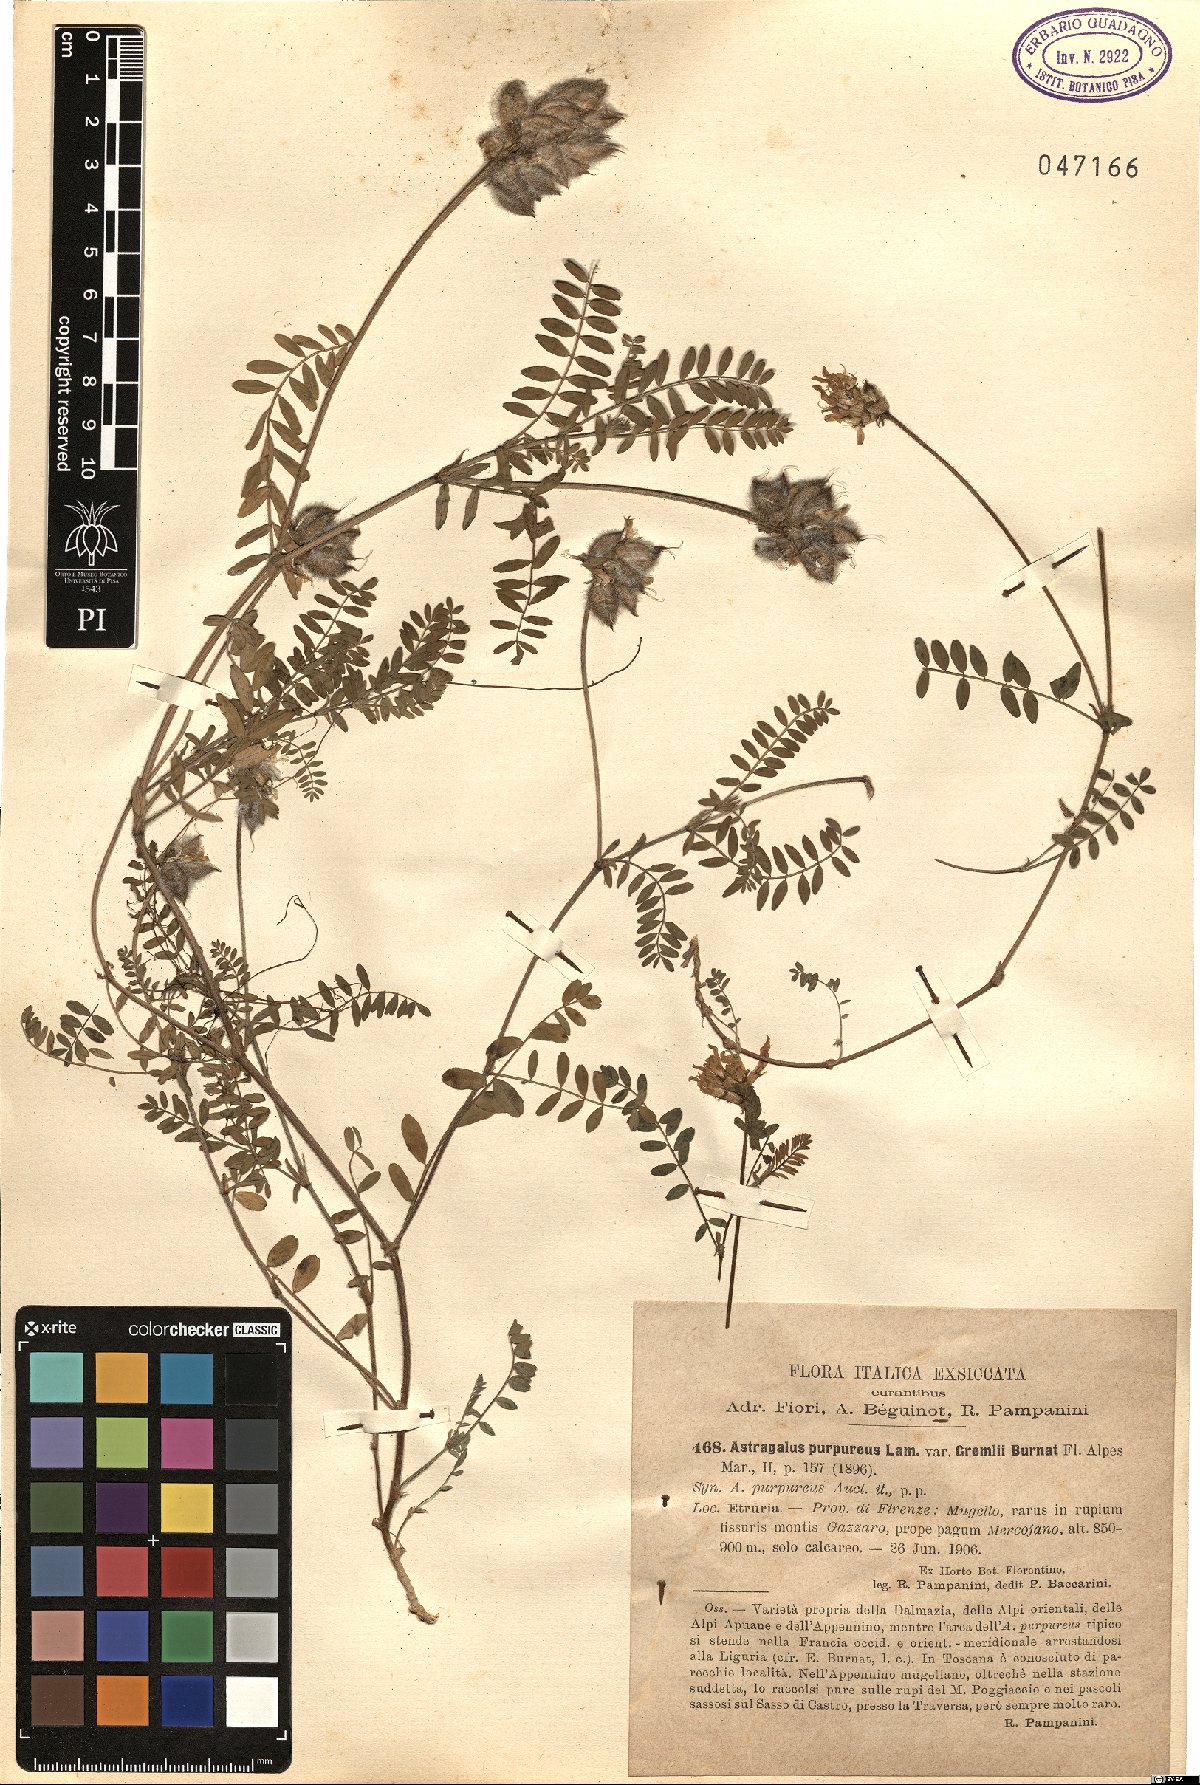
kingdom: Plantae
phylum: Tracheophyta
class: Magnoliopsida
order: Fabales
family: Fabaceae
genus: Astragalus
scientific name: Astragalus hypoglottis
